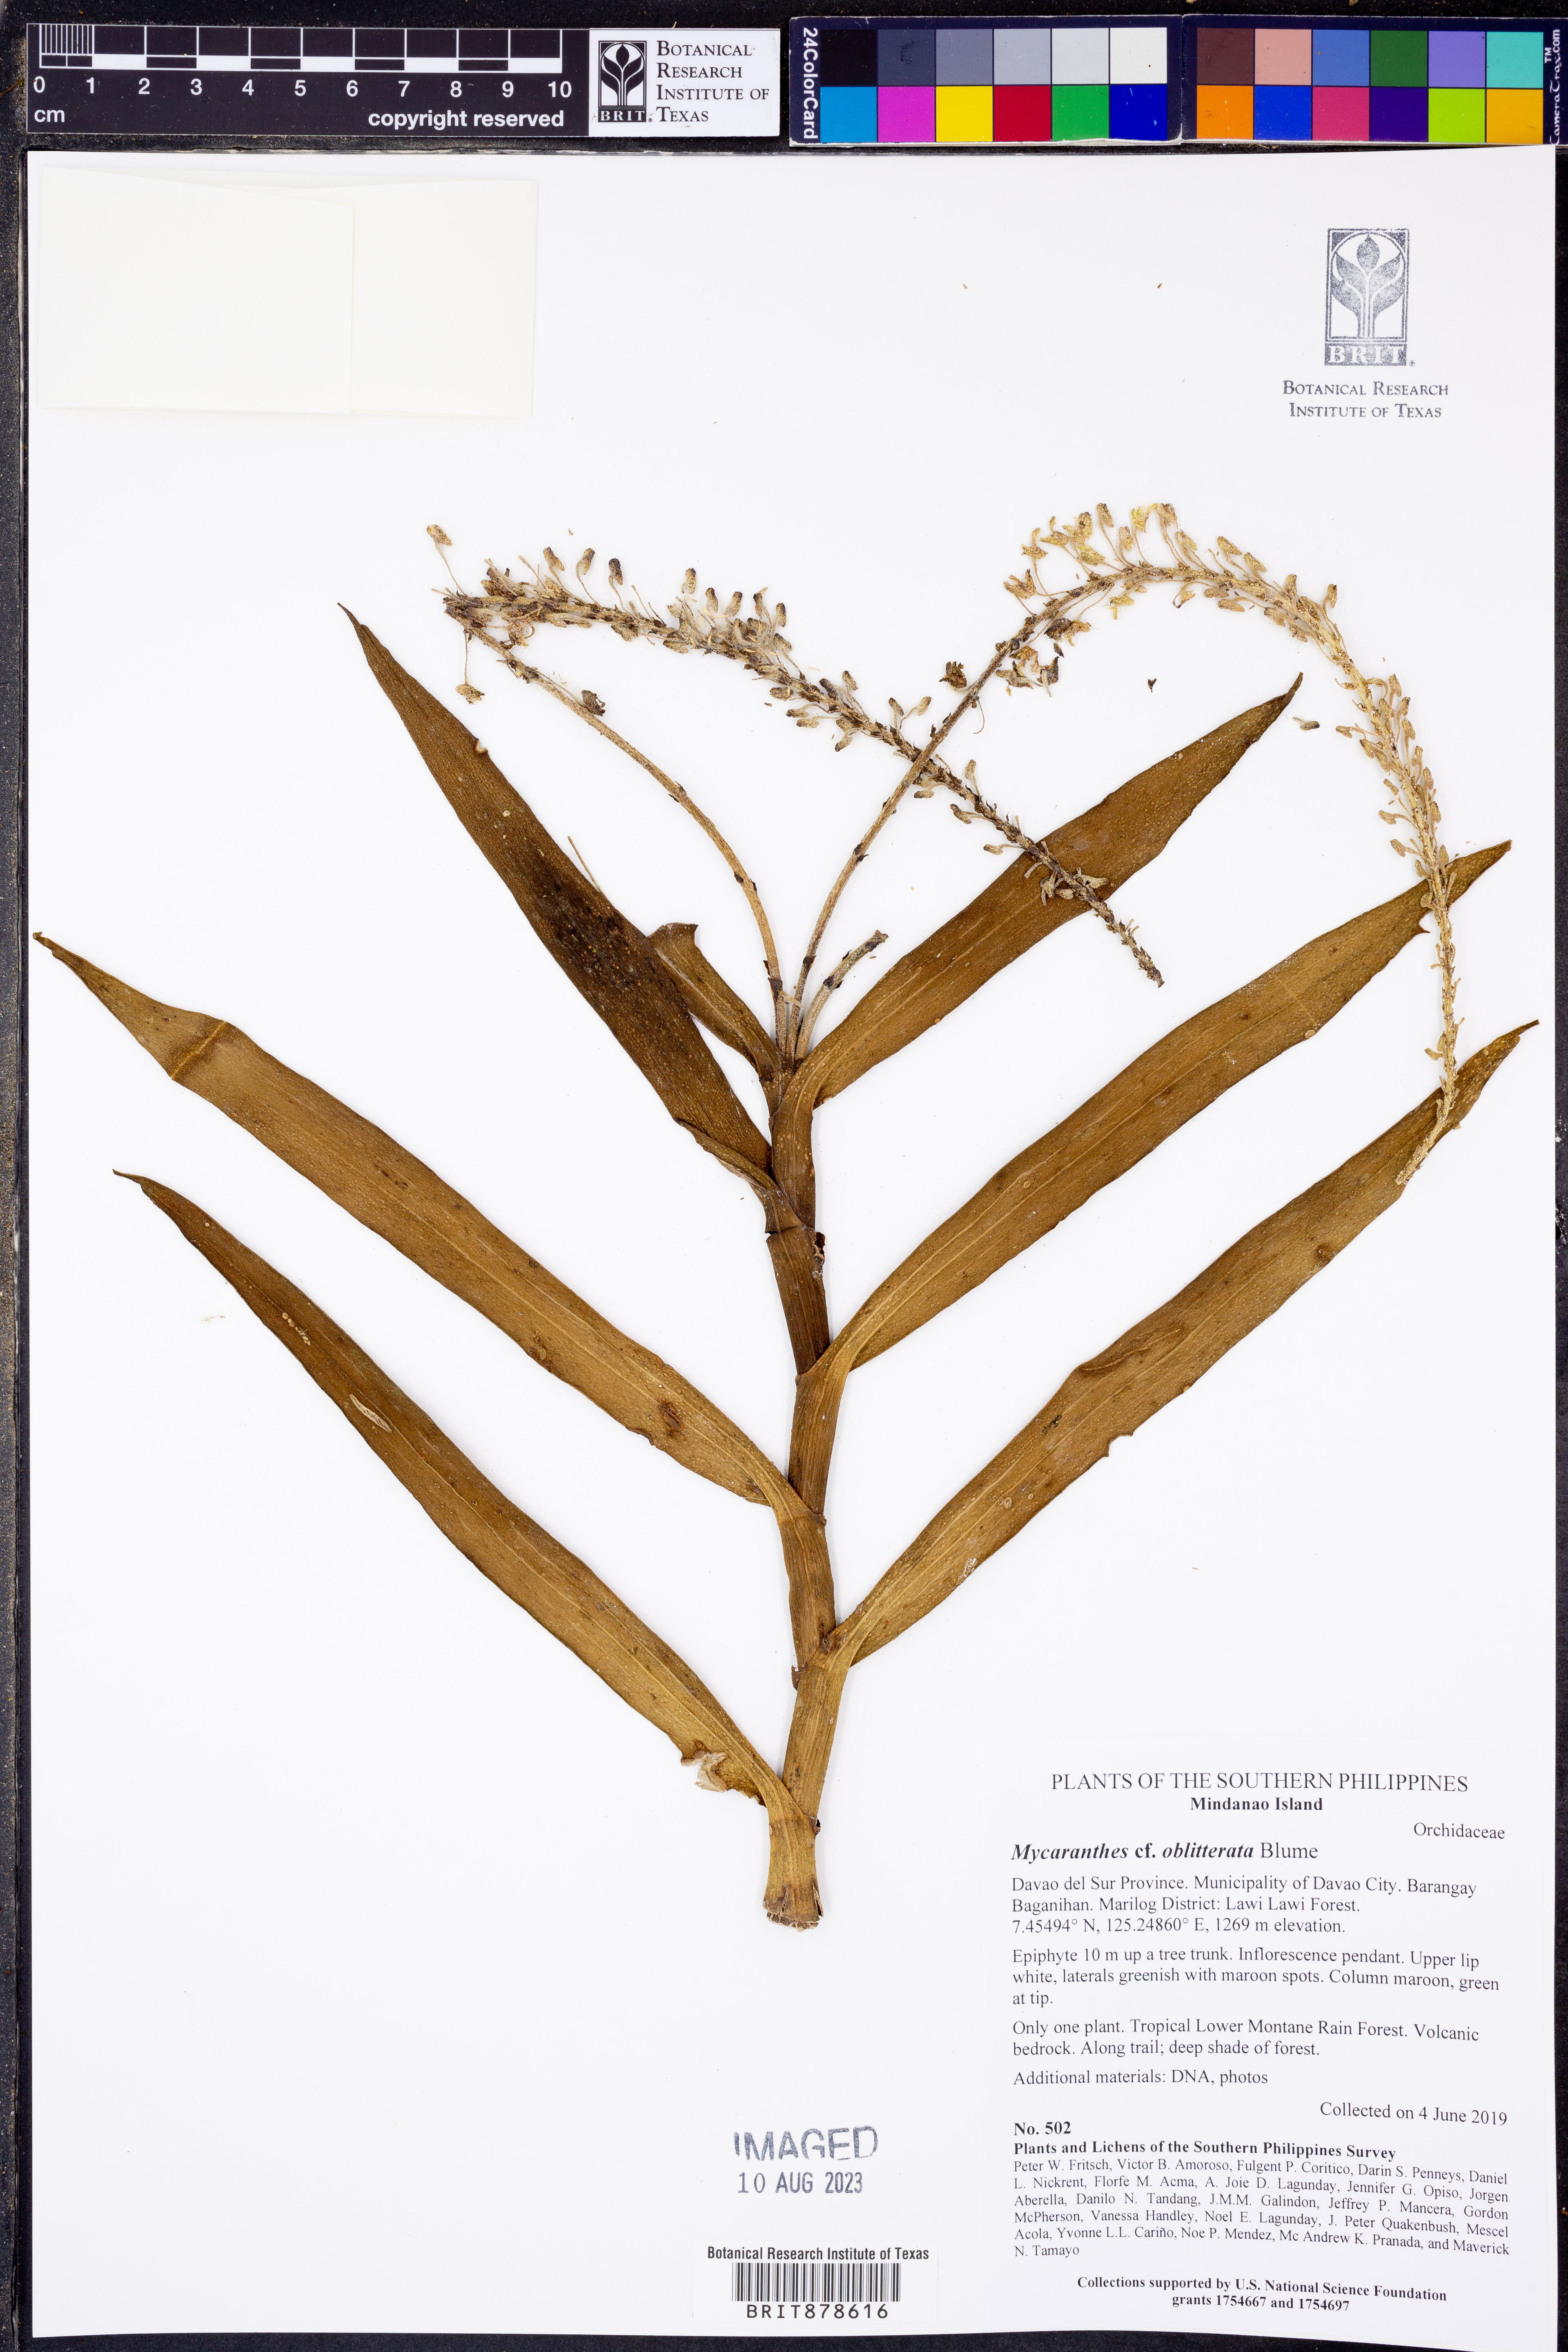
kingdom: Plantae
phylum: Tracheophyta
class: Liliopsida
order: Asparagales
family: Orchidaceae
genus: Mycaranthes
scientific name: Mycaranthes oblitterata
